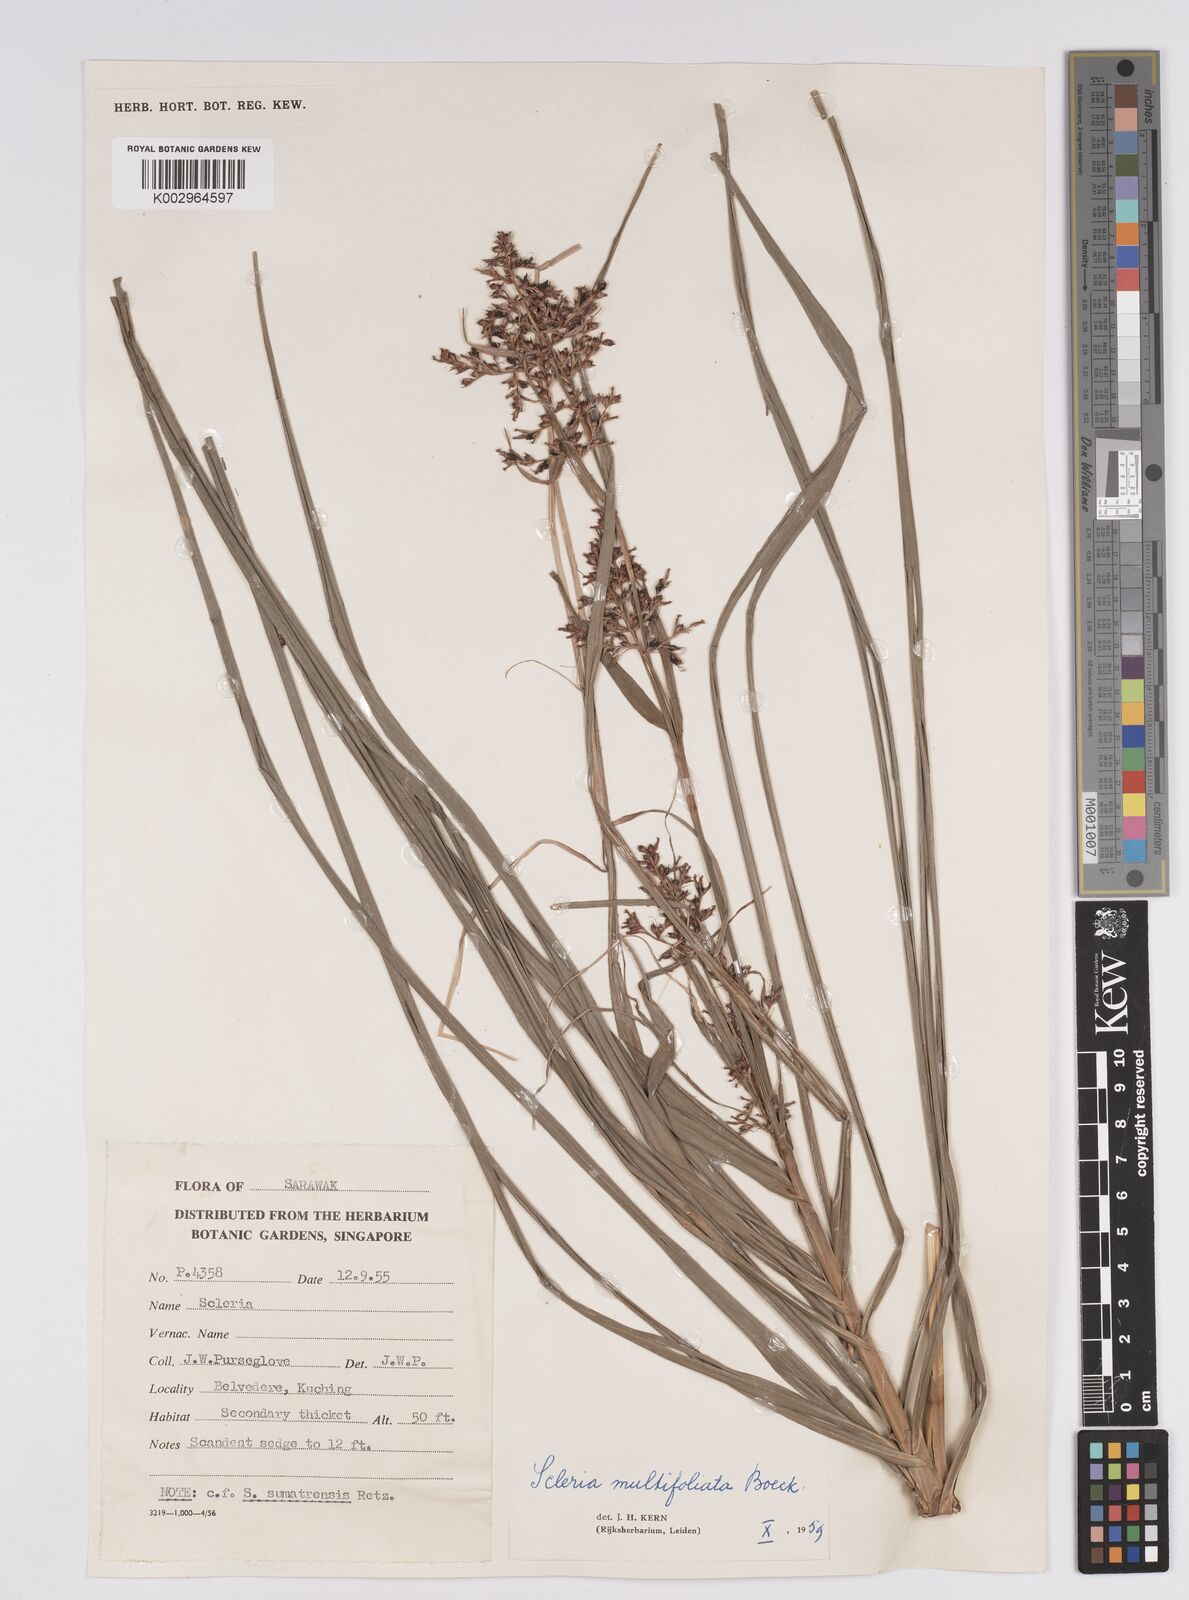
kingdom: Plantae
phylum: Tracheophyta
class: Liliopsida
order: Poales
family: Cyperaceae
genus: Scleria
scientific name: Scleria purpurascens
